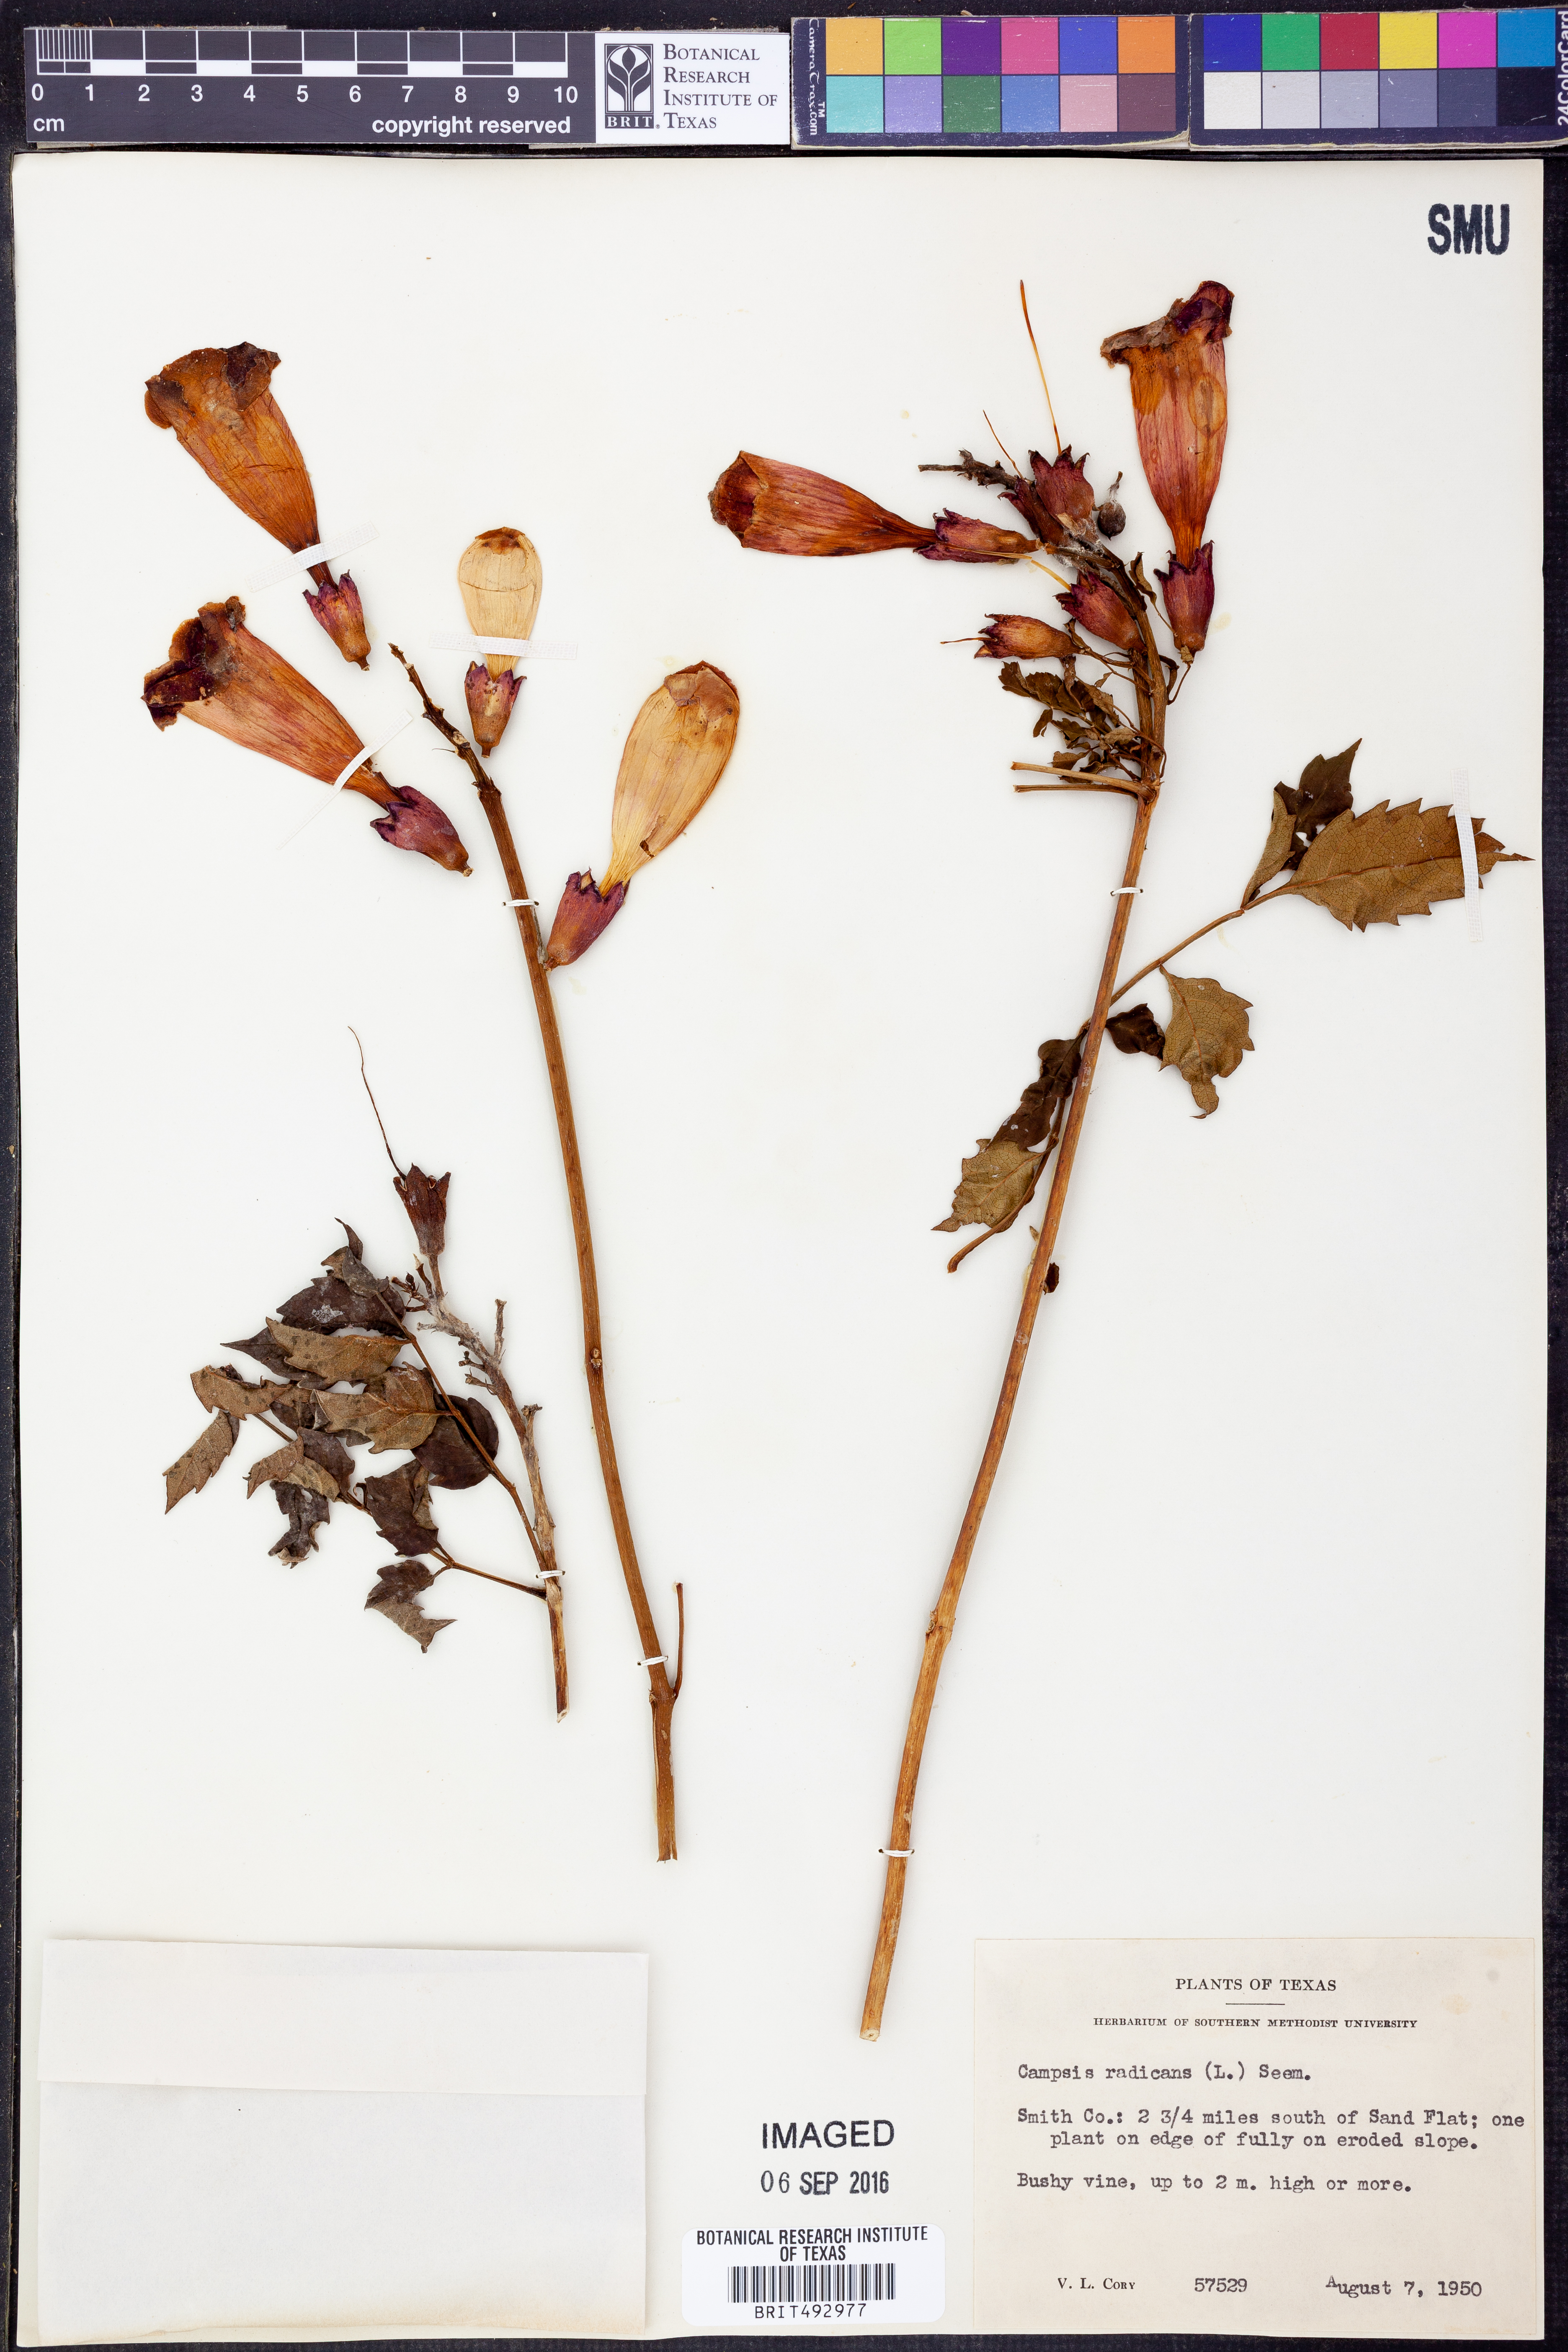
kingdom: Plantae
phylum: Tracheophyta
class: Magnoliopsida
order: Lamiales
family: Bignoniaceae
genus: Campsis
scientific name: Campsis radicans
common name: Trumpet-creeper
